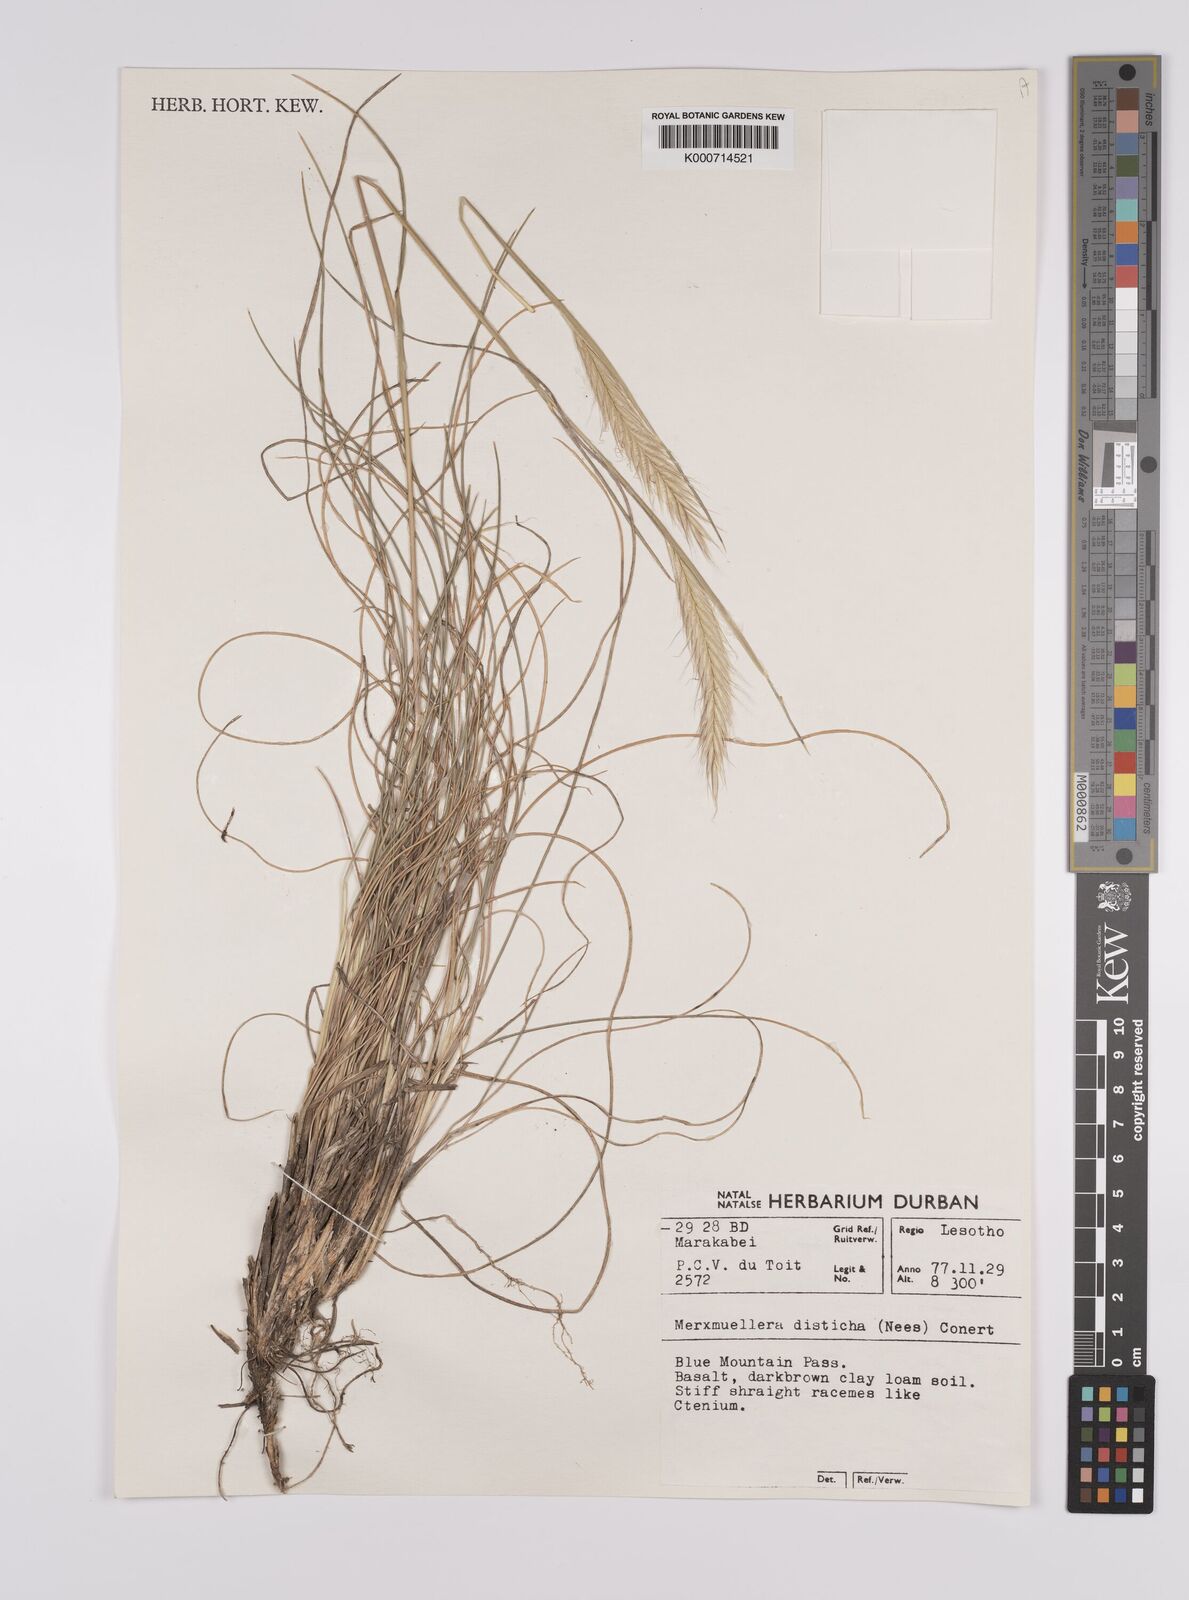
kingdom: Plantae
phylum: Tracheophyta
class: Liliopsida
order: Poales
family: Poaceae
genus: Tenaxia
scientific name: Tenaxia disticha
